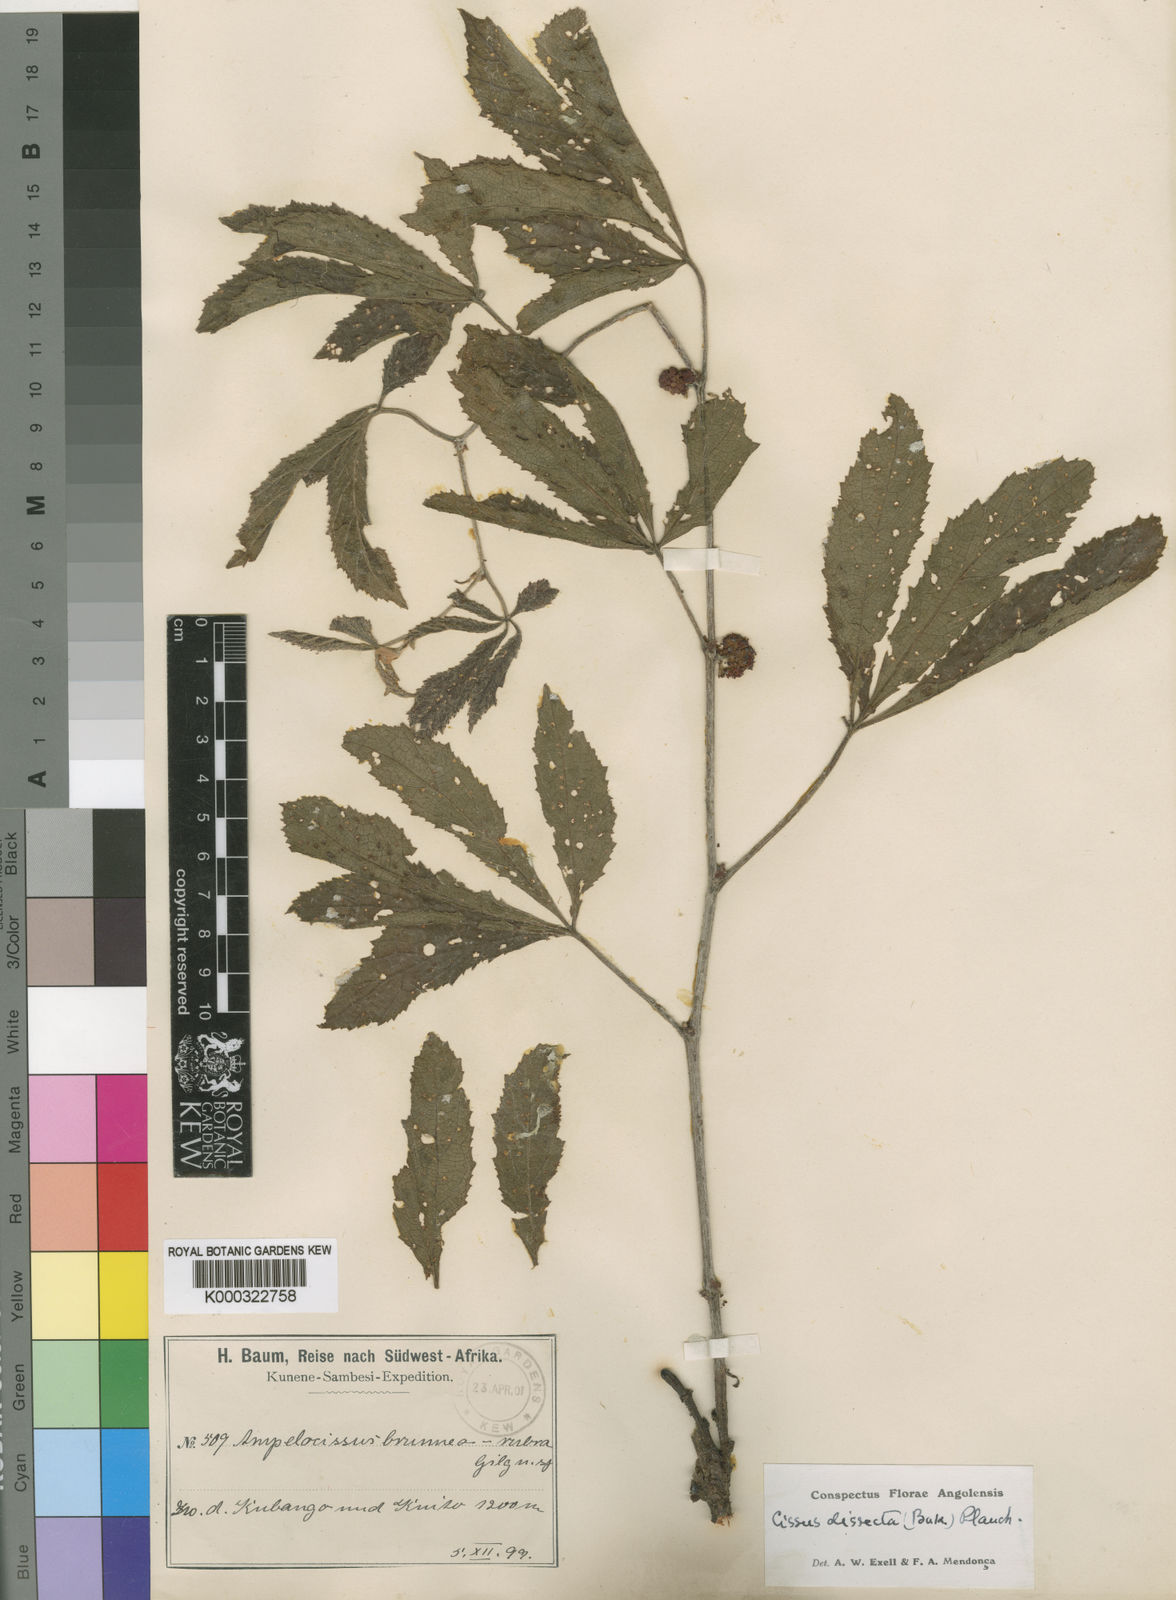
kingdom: Plantae
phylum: Tracheophyta
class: Magnoliopsida
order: Vitales
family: Vitaceae
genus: Ampelocissus
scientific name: Ampelocissus obtusata
